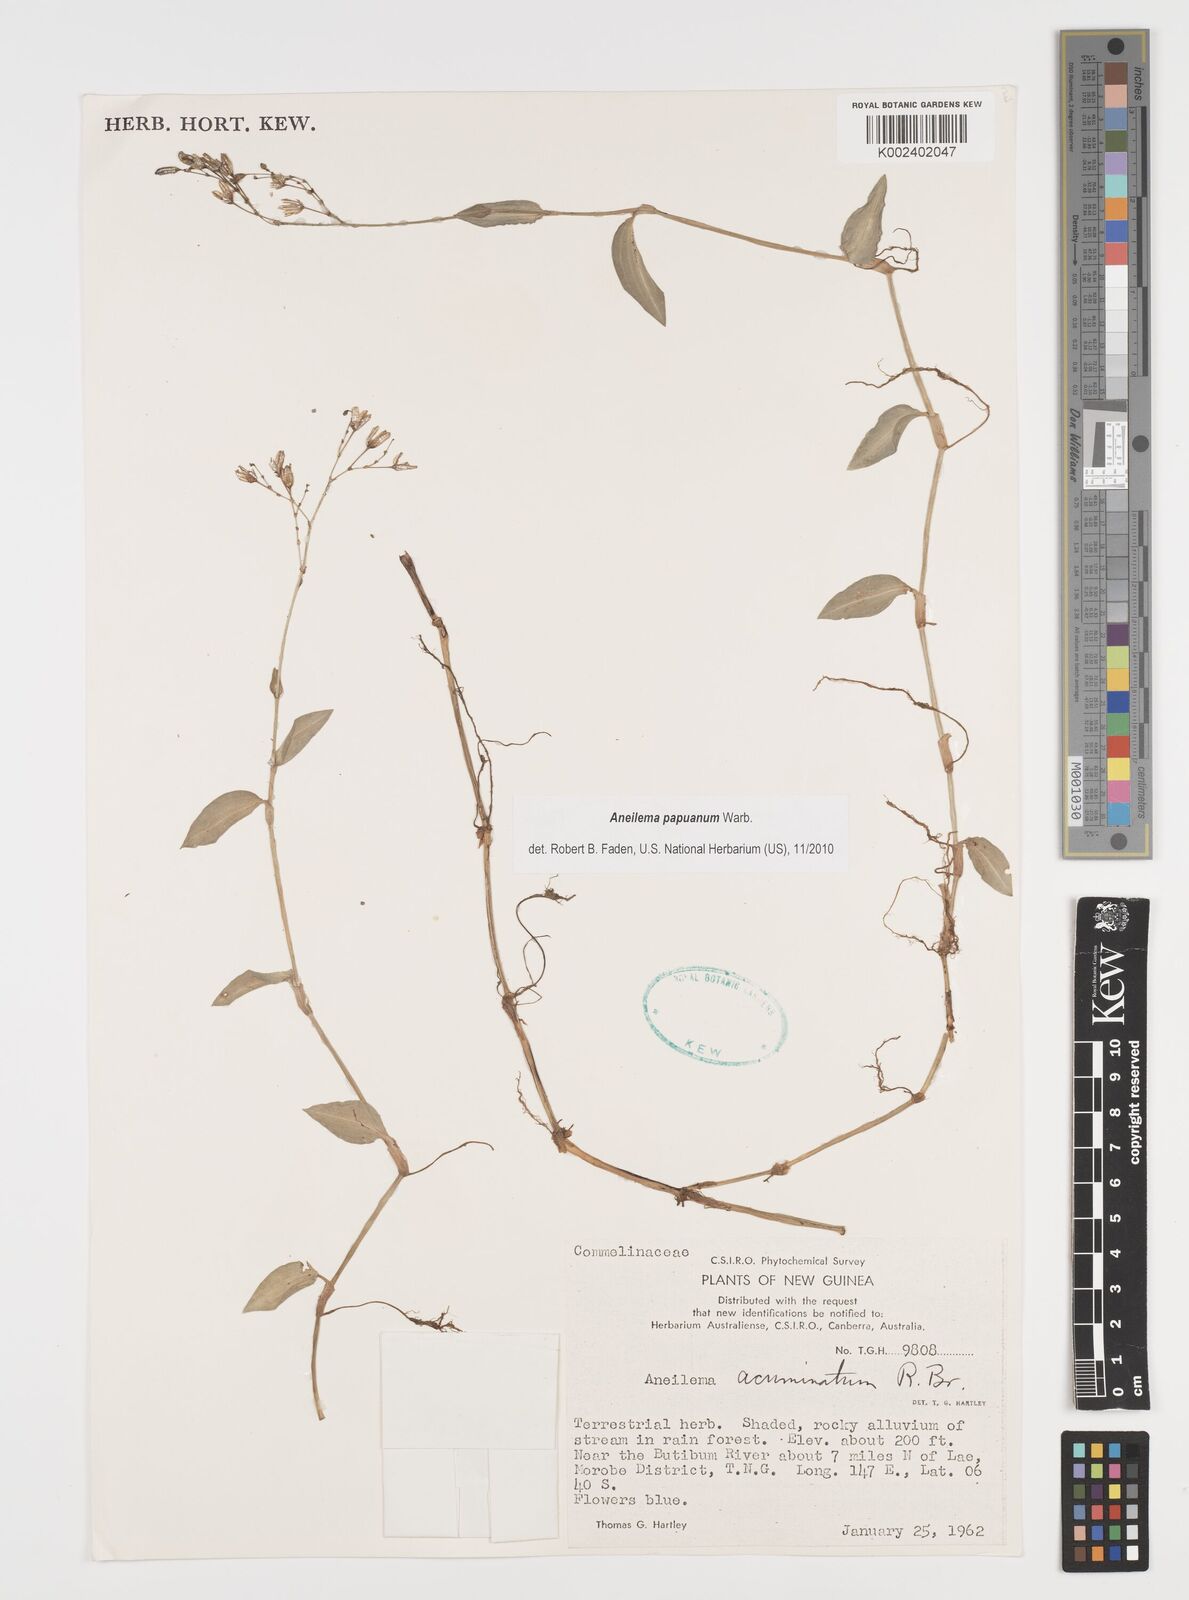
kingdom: Plantae
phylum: Tracheophyta
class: Liliopsida
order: Commelinales
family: Commelinaceae
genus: Aneilema
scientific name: Aneilema acuminatum
